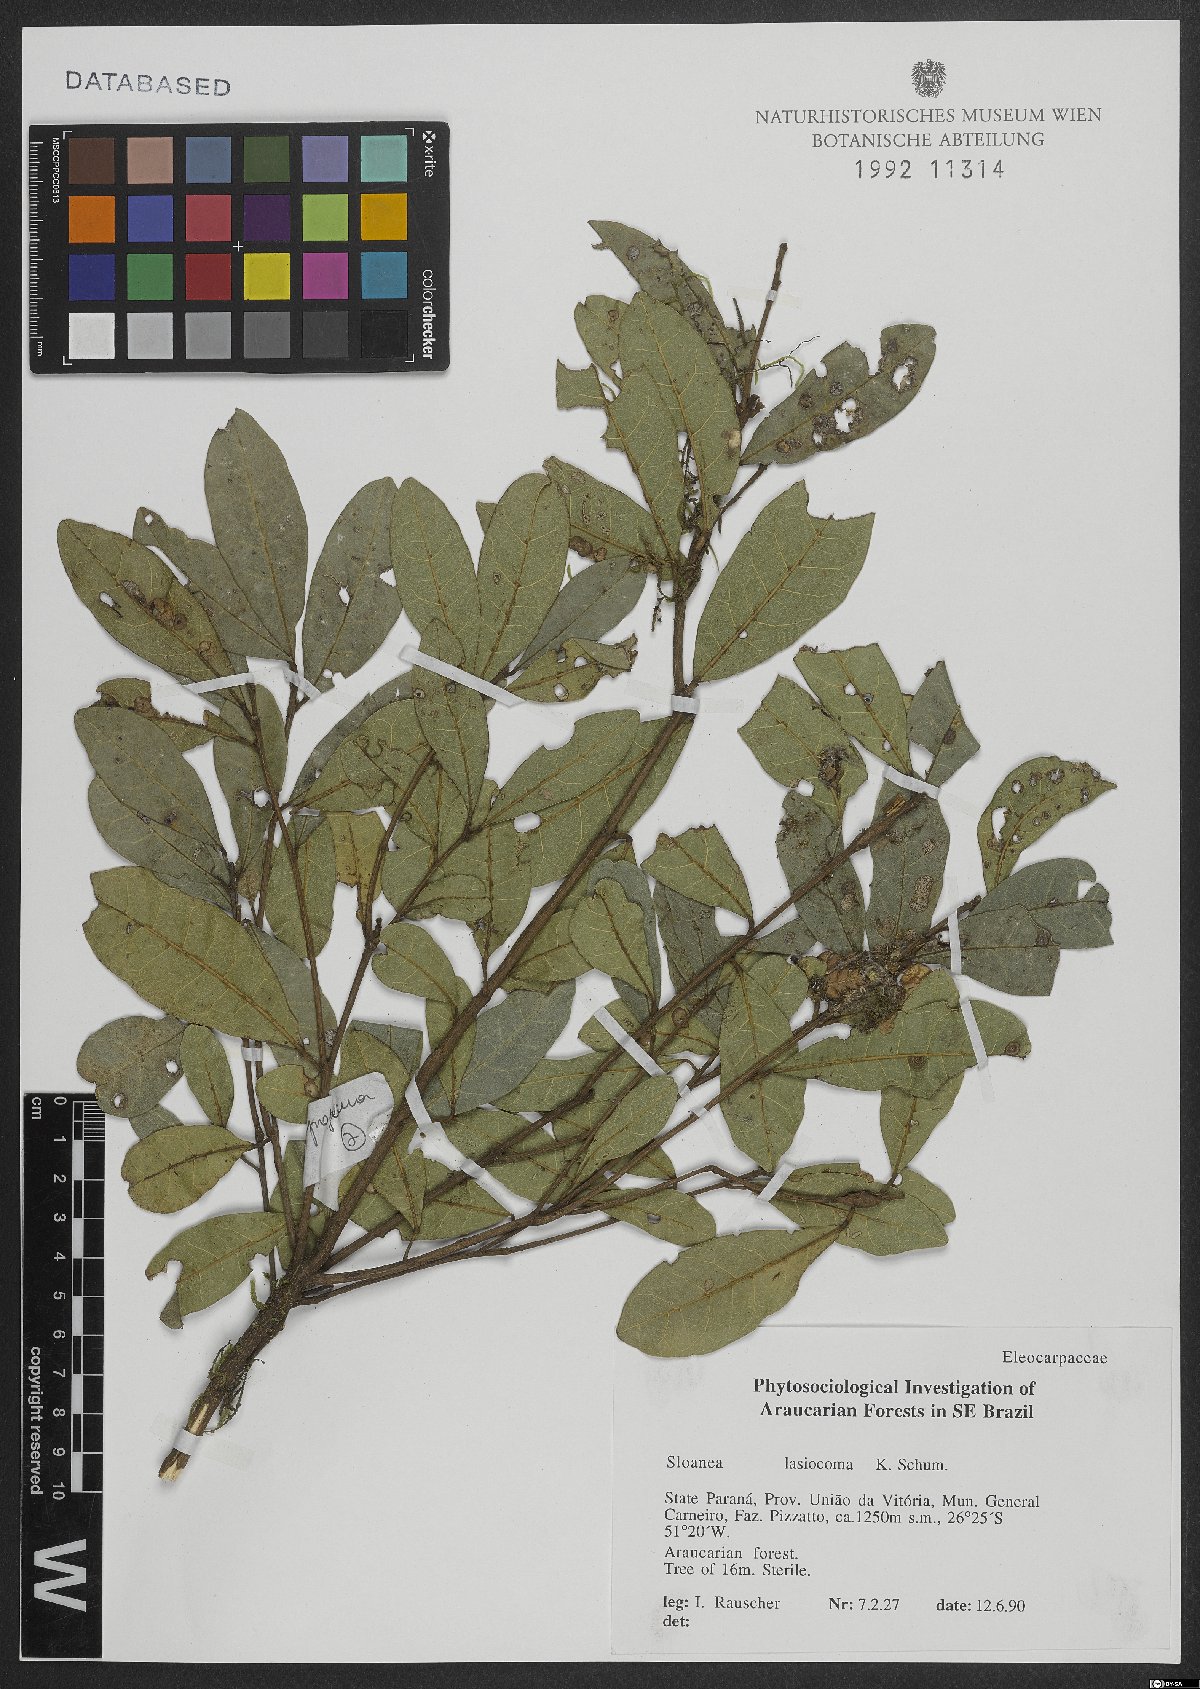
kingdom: Plantae
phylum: Tracheophyta
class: Magnoliopsida
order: Oxalidales
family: Elaeocarpaceae
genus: Sloanea
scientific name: Sloanea hirsuta
